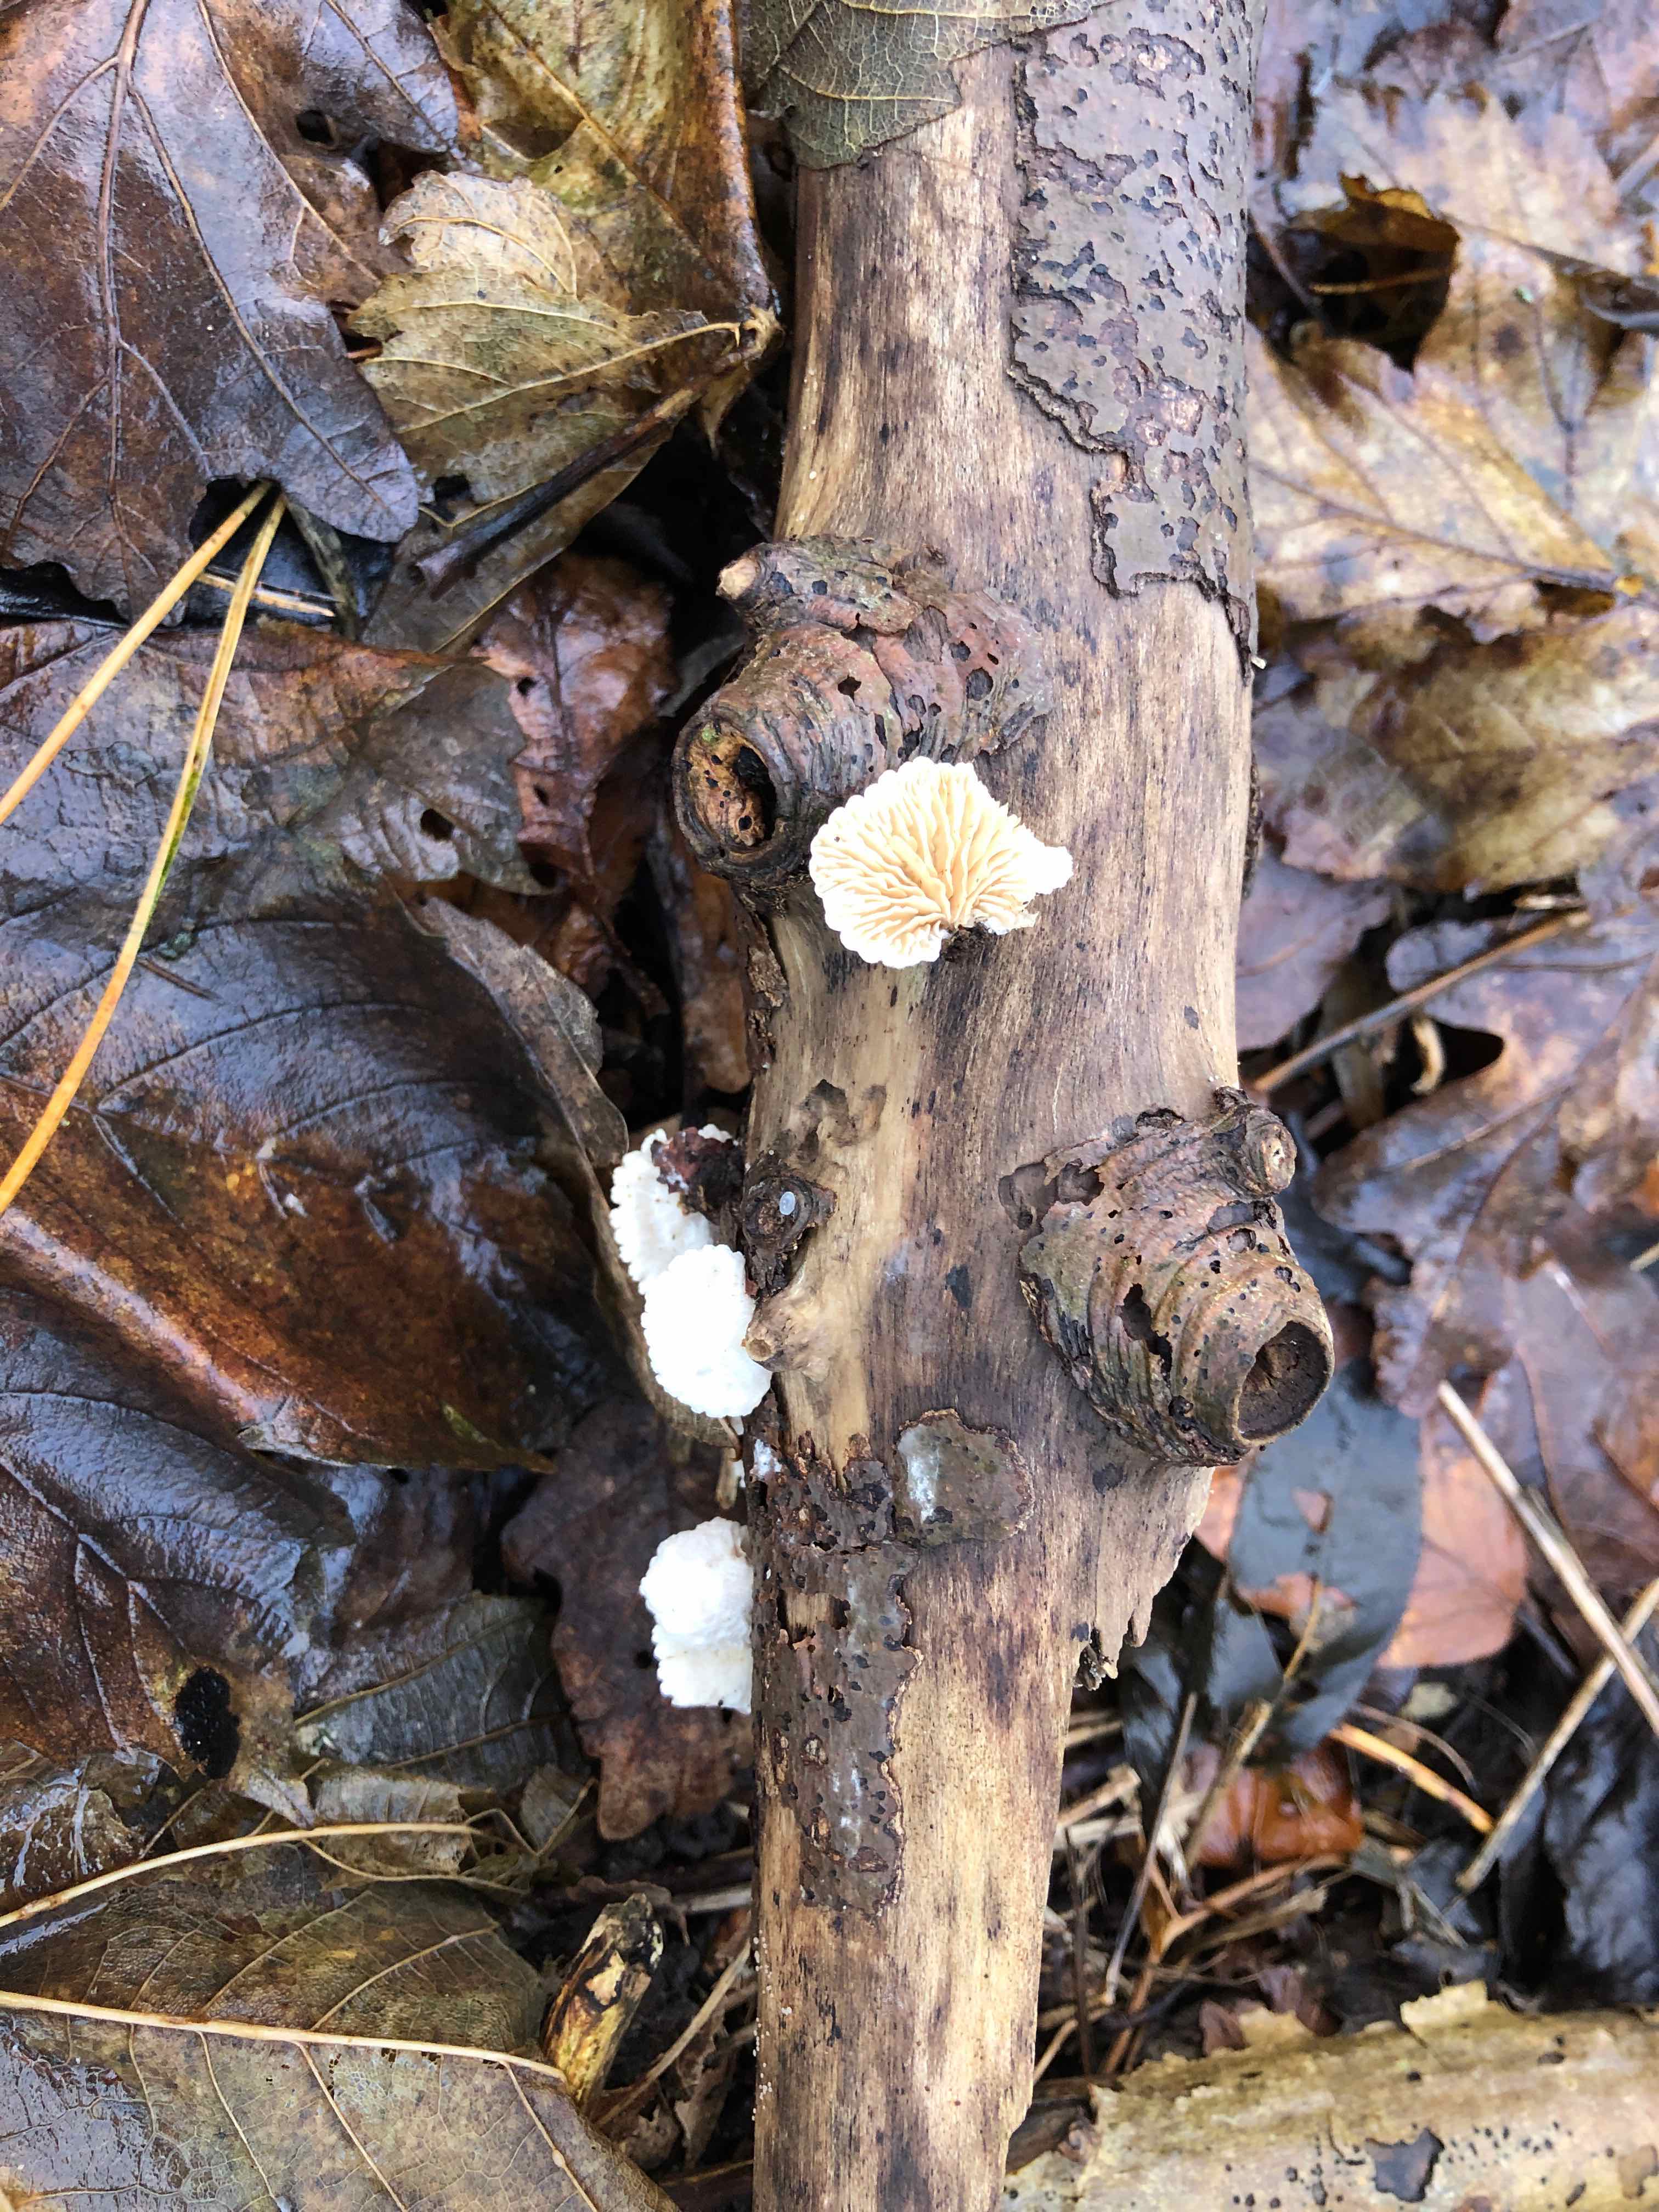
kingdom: Fungi
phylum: Basidiomycota
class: Agaricomycetes
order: Agaricales
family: Crepidotaceae
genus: Crepidotus
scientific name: Crepidotus cesatii
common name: almindelig muslingesvamp
